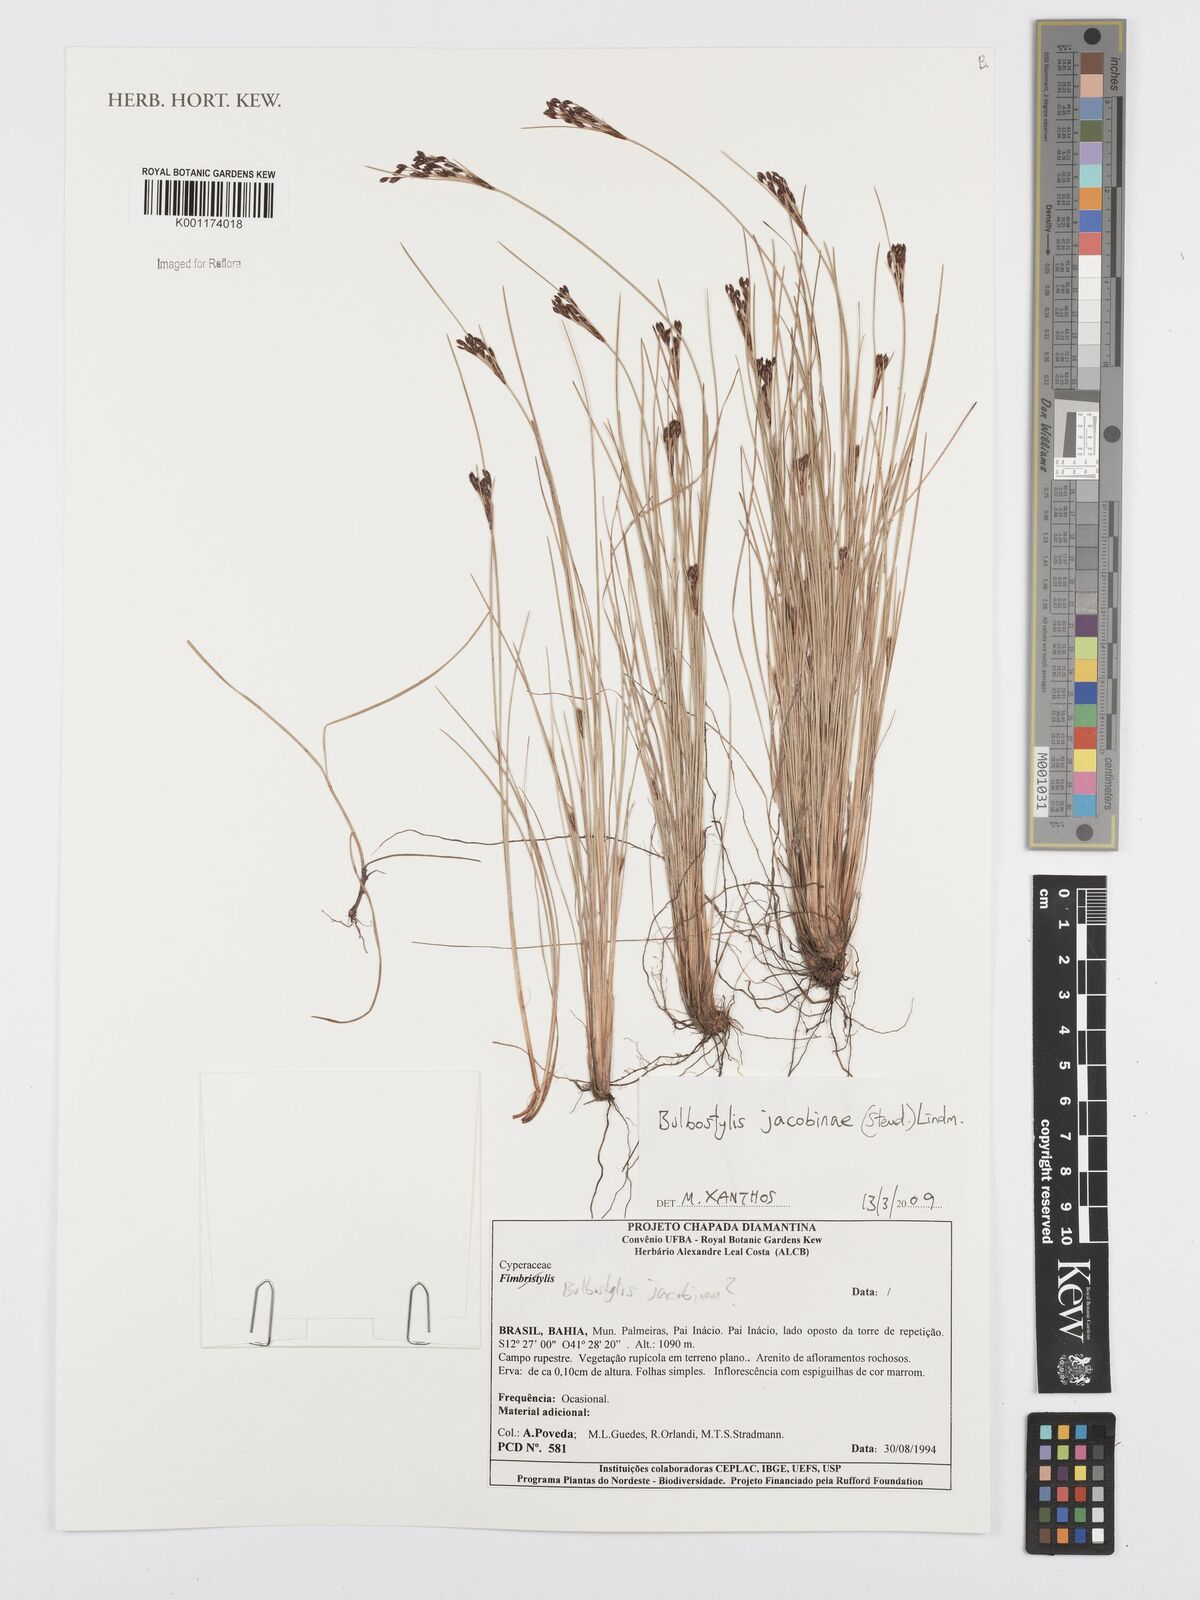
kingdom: Plantae
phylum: Tracheophyta
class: Liliopsida
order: Poales
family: Cyperaceae
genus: Bulbostylis
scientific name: Bulbostylis jacobinae
